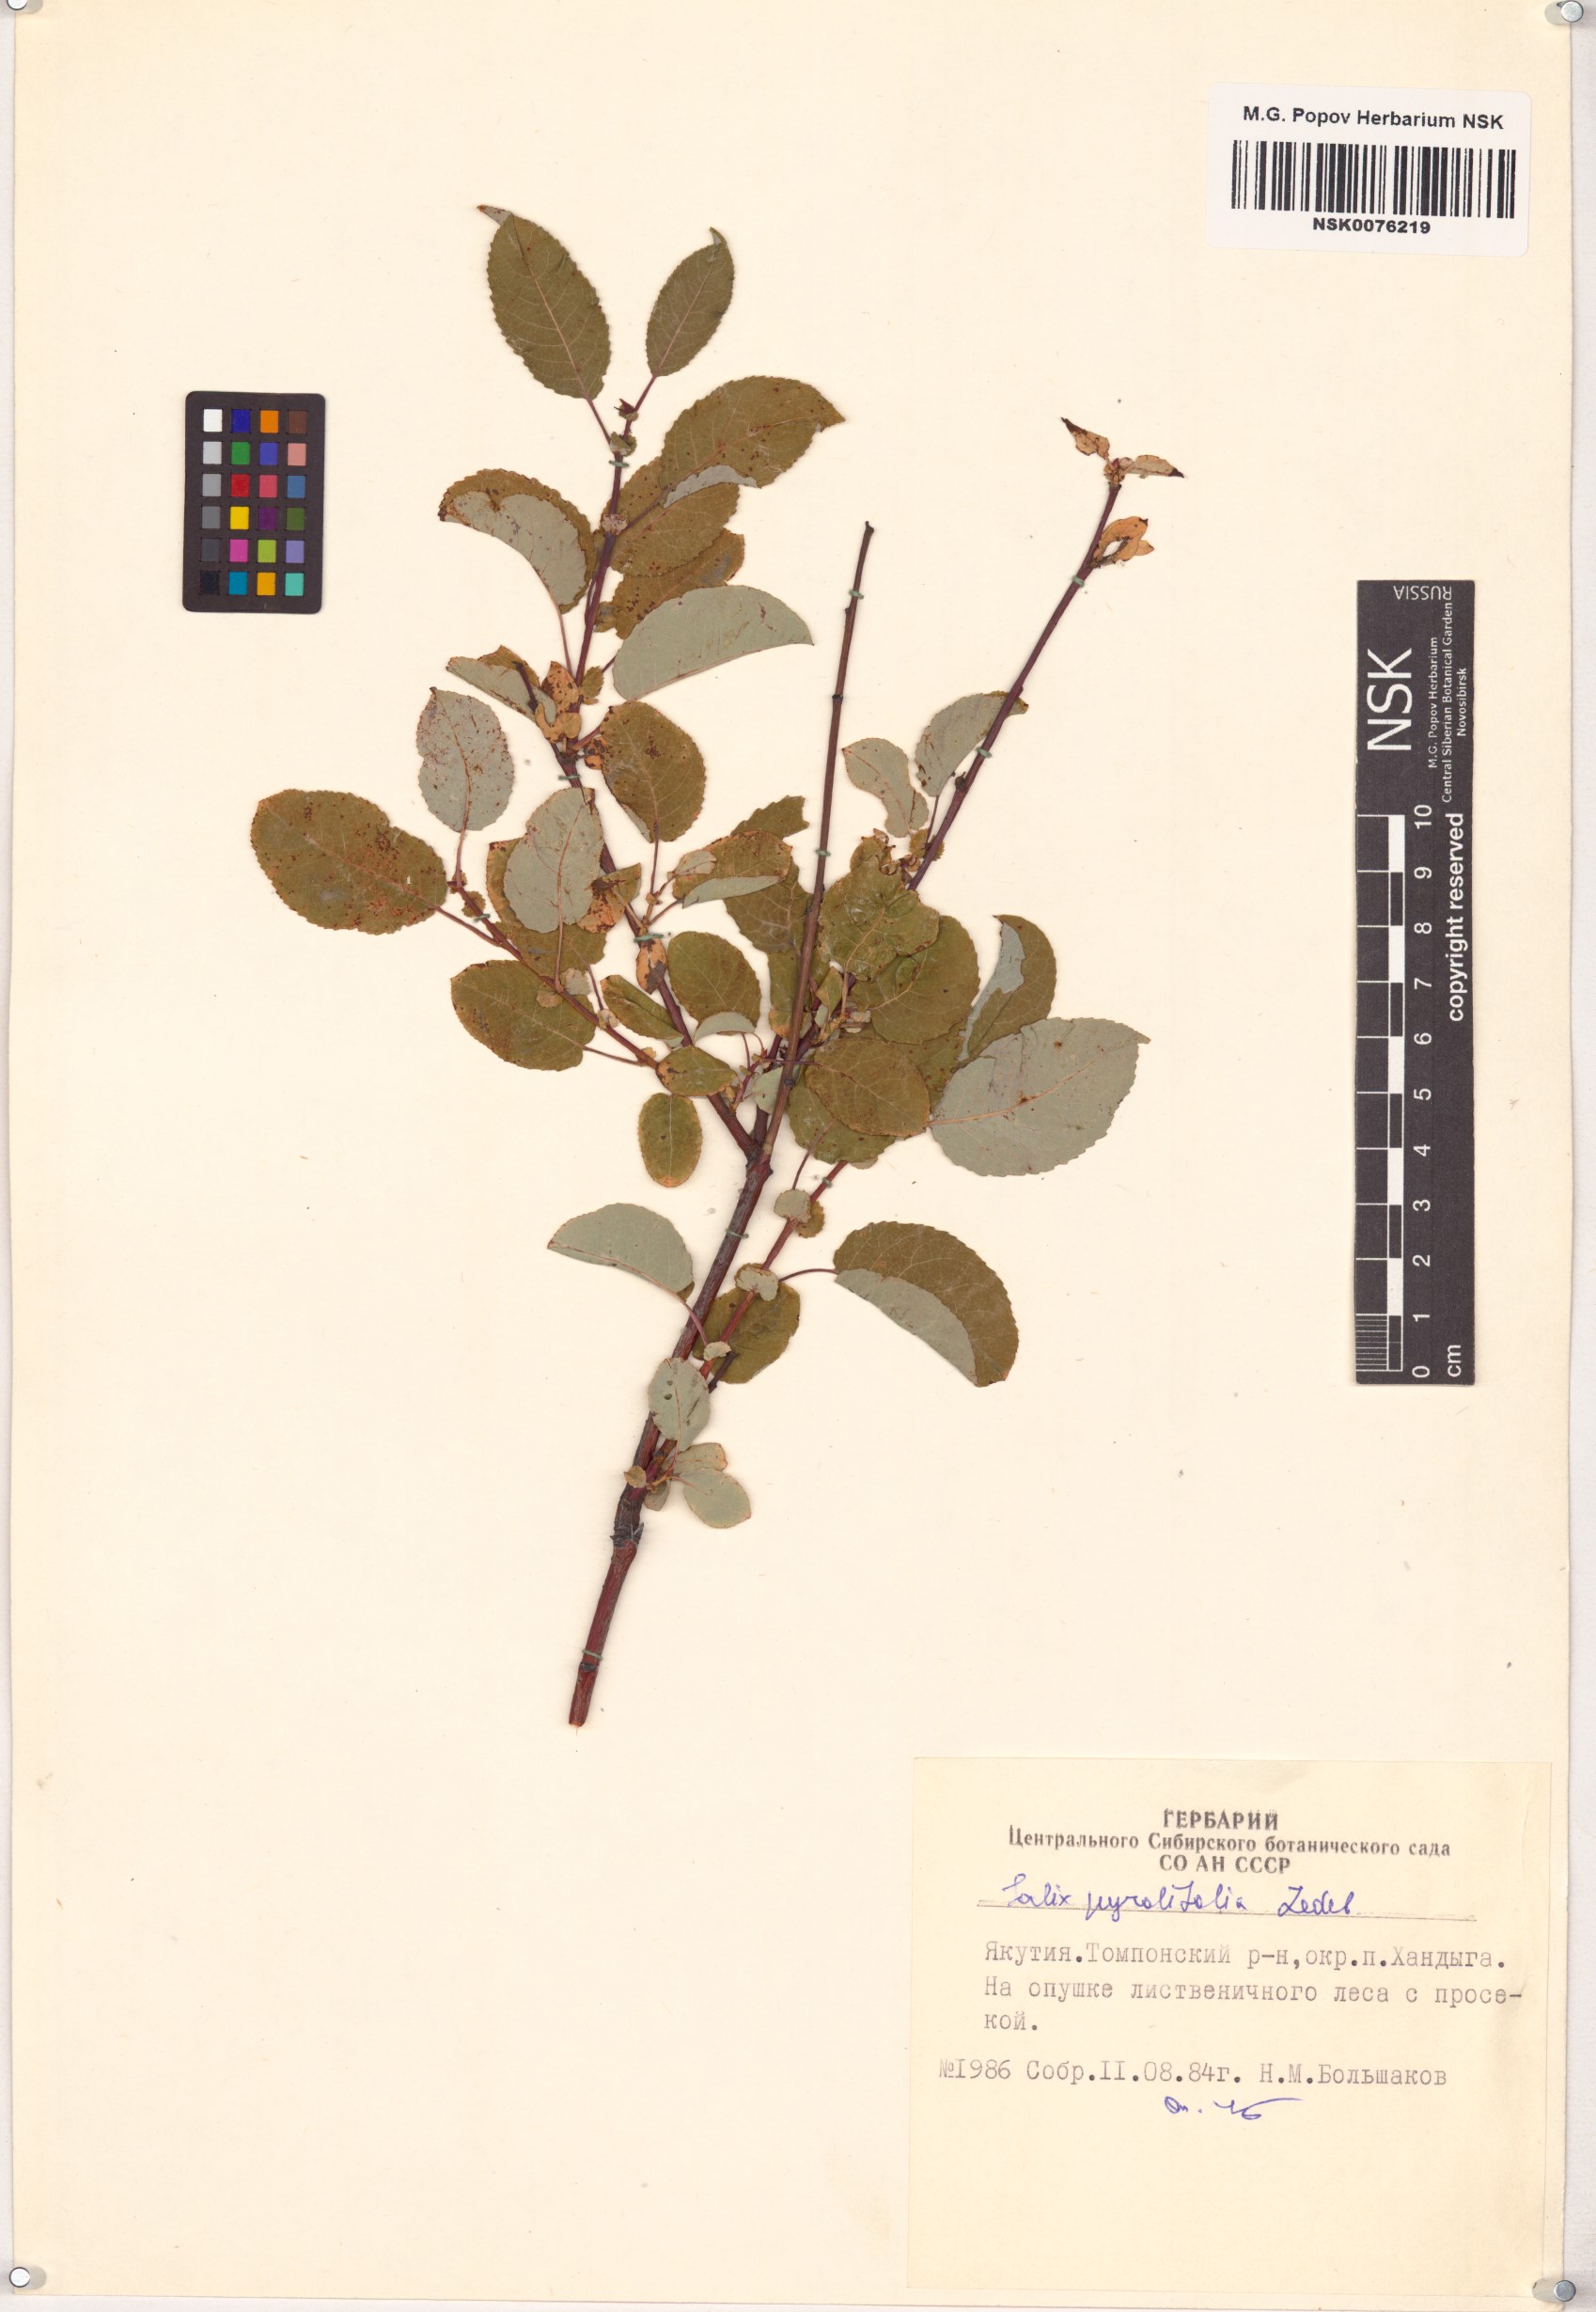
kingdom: Plantae
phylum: Tracheophyta
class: Magnoliopsida
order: Malpighiales
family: Salicaceae
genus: Salix
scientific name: Salix pyrolifolia
